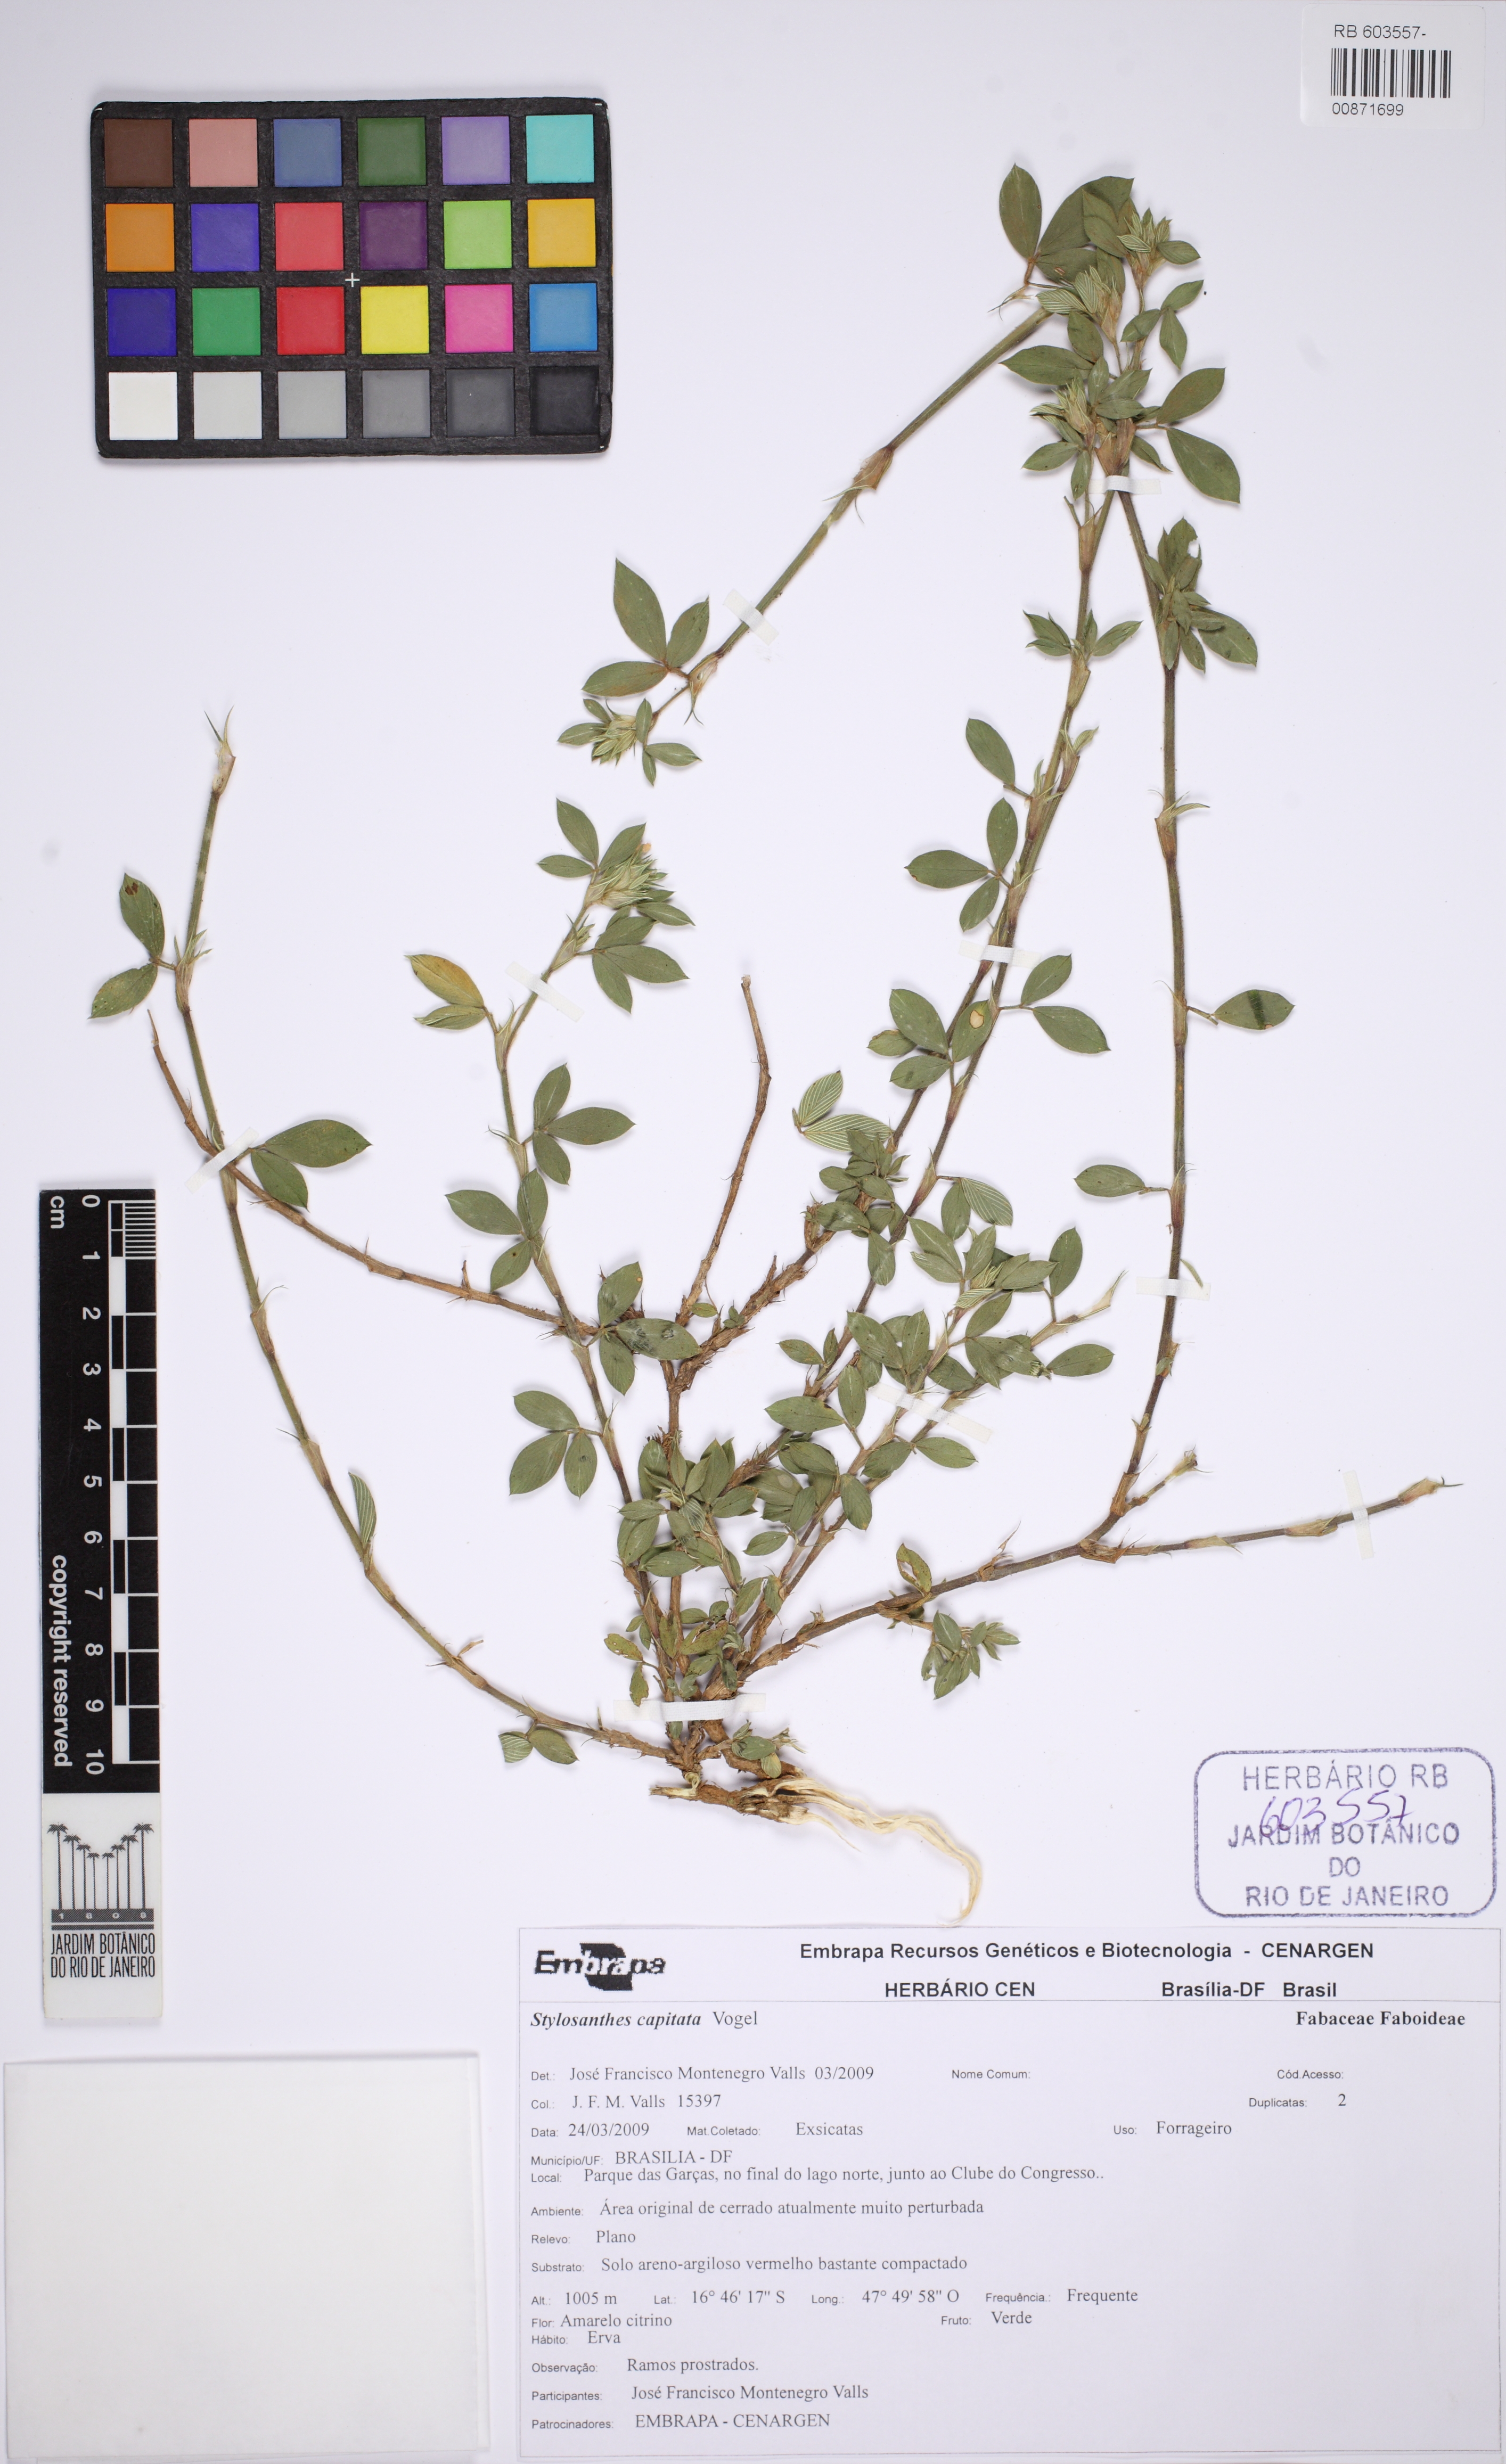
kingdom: Plantae
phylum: Tracheophyta
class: Magnoliopsida
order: Fabales
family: Fabaceae
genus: Stylosanthes
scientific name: Stylosanthes capitata
